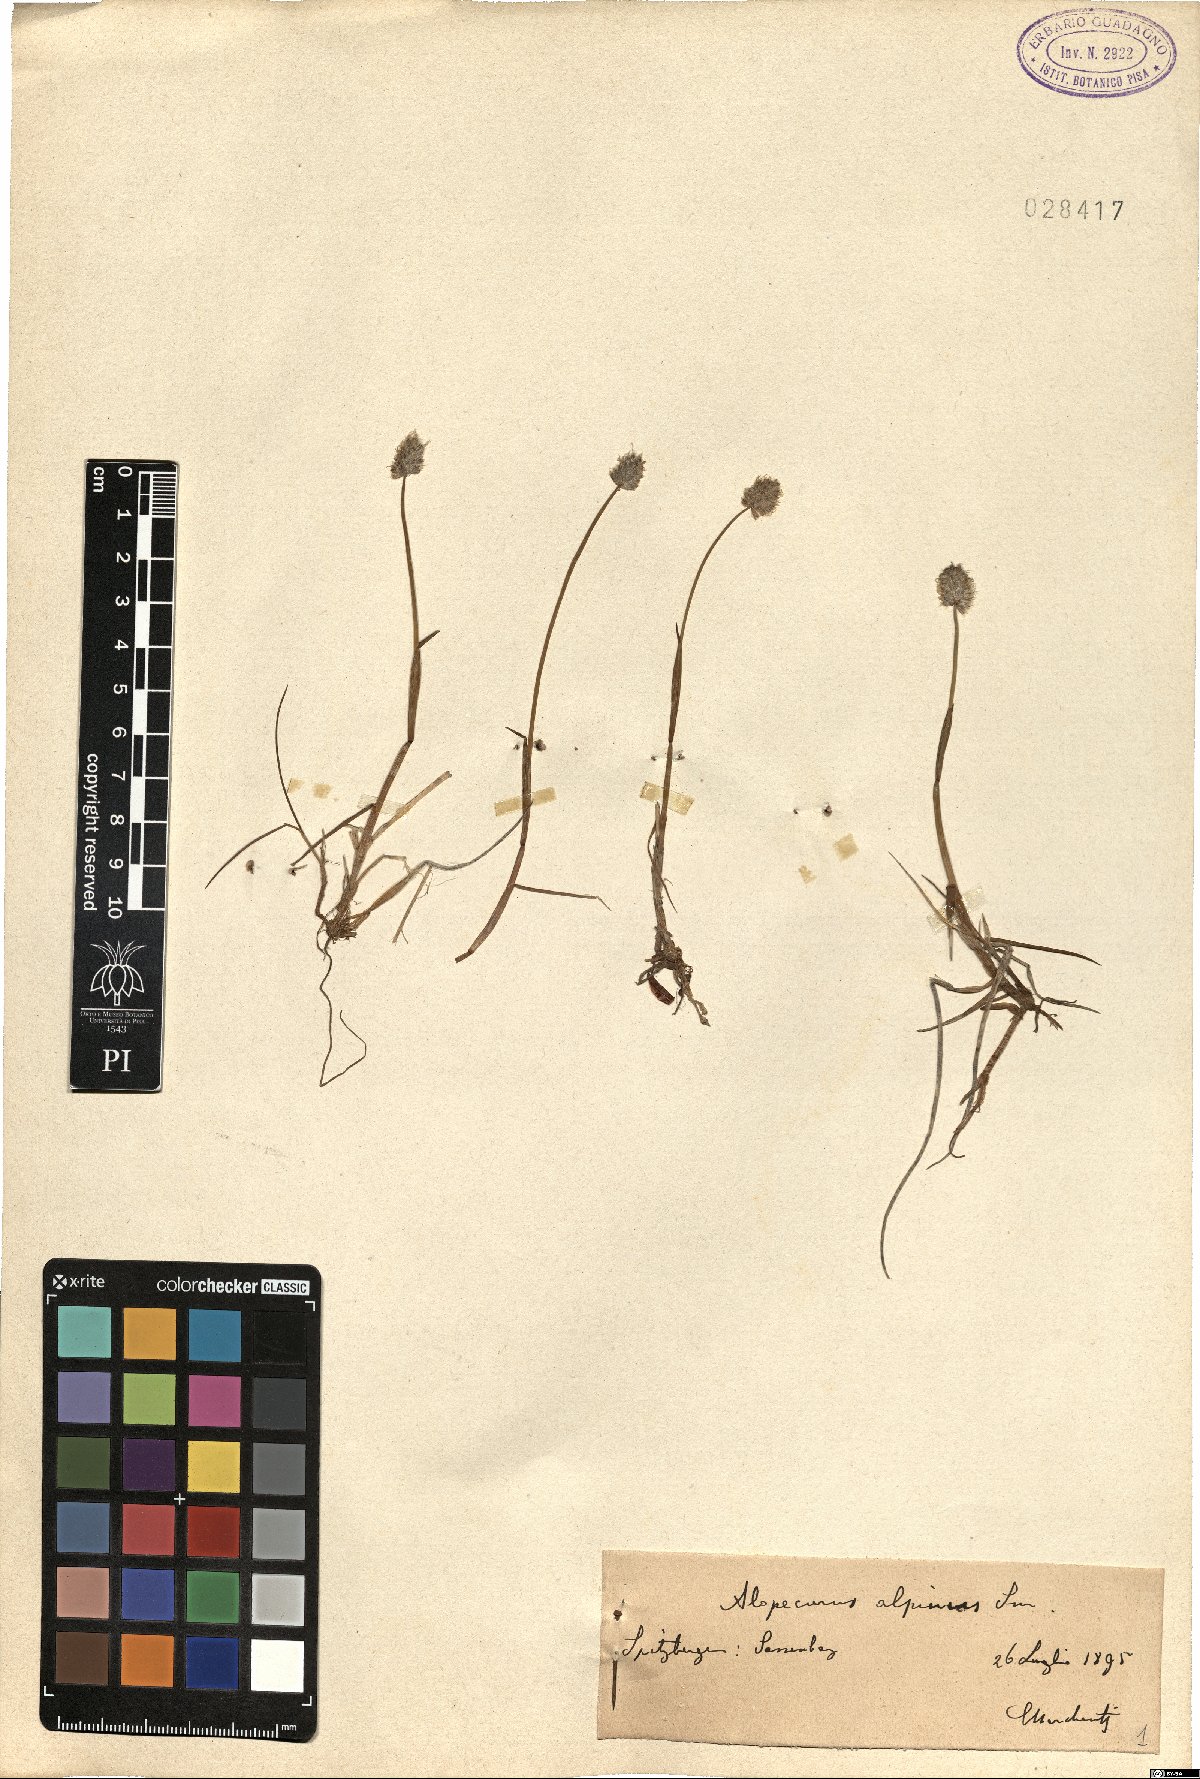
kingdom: Plantae
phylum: Tracheophyta
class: Liliopsida
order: Poales
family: Poaceae
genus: Alopecurus
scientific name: Alopecurus magellanicus
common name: Alpine foxtail
